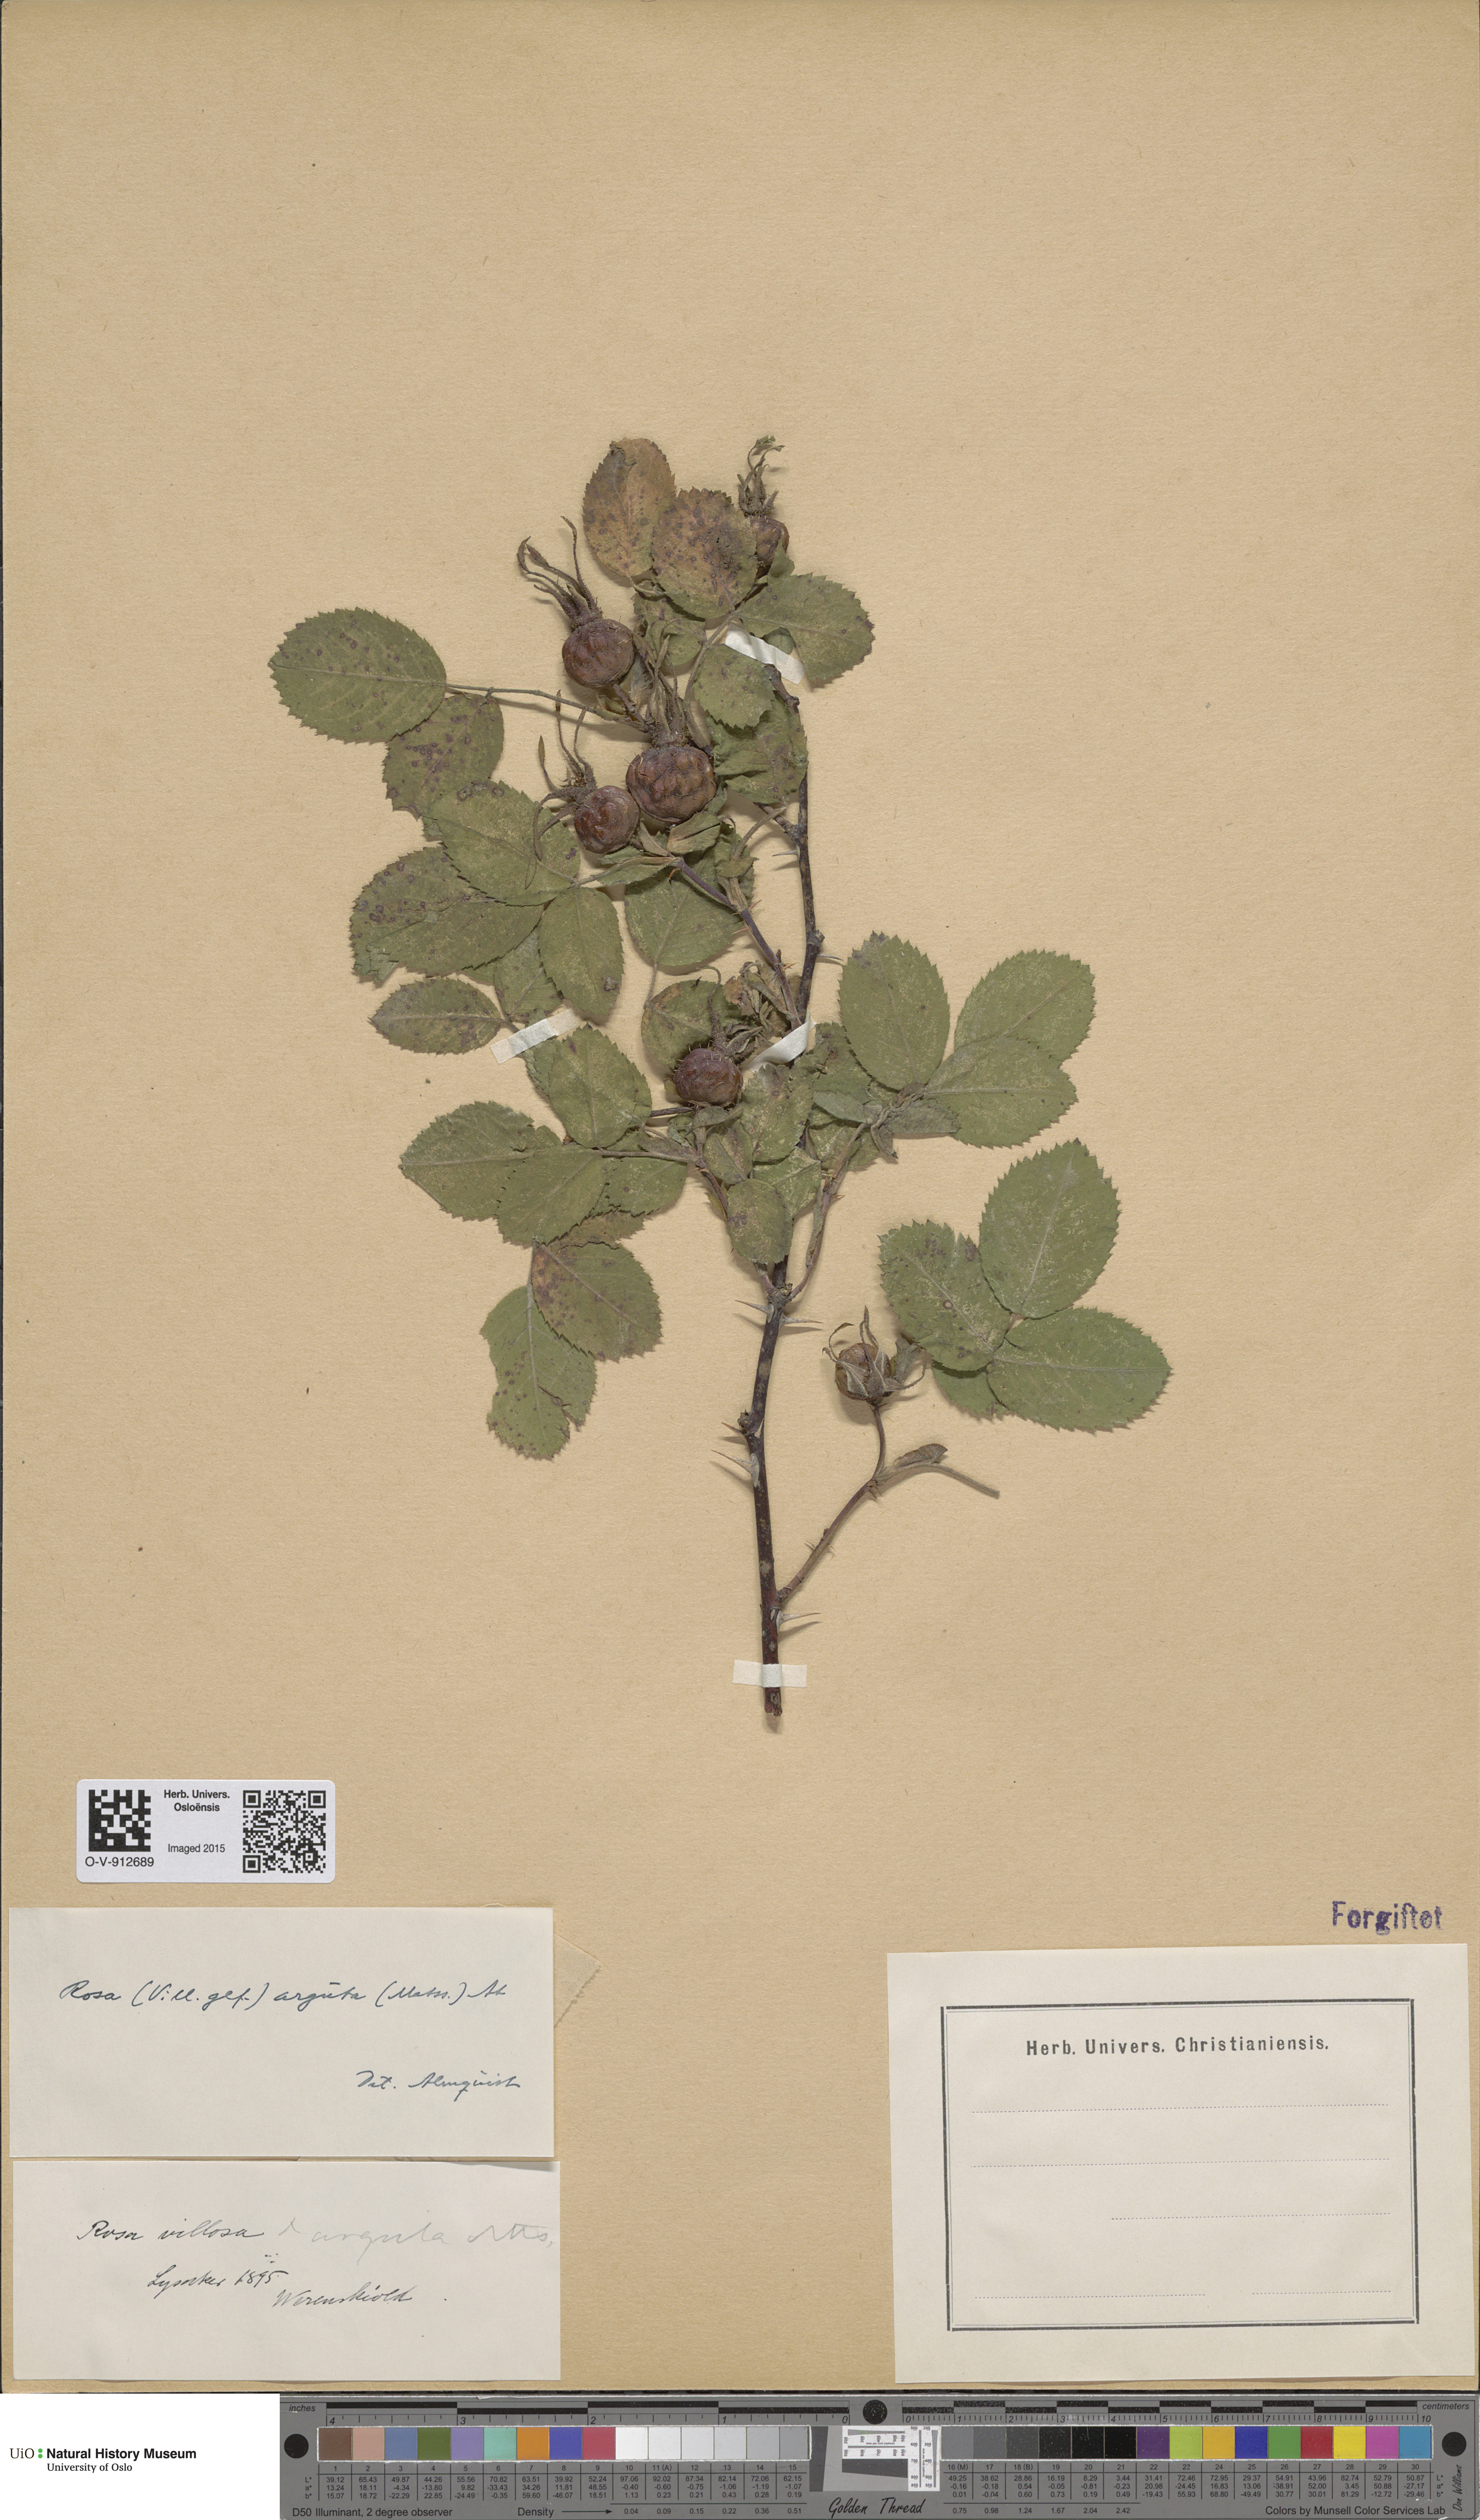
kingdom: Plantae
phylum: Tracheophyta
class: Magnoliopsida
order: Rosales
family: Rosaceae
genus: Rosa
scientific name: Rosa villosa
